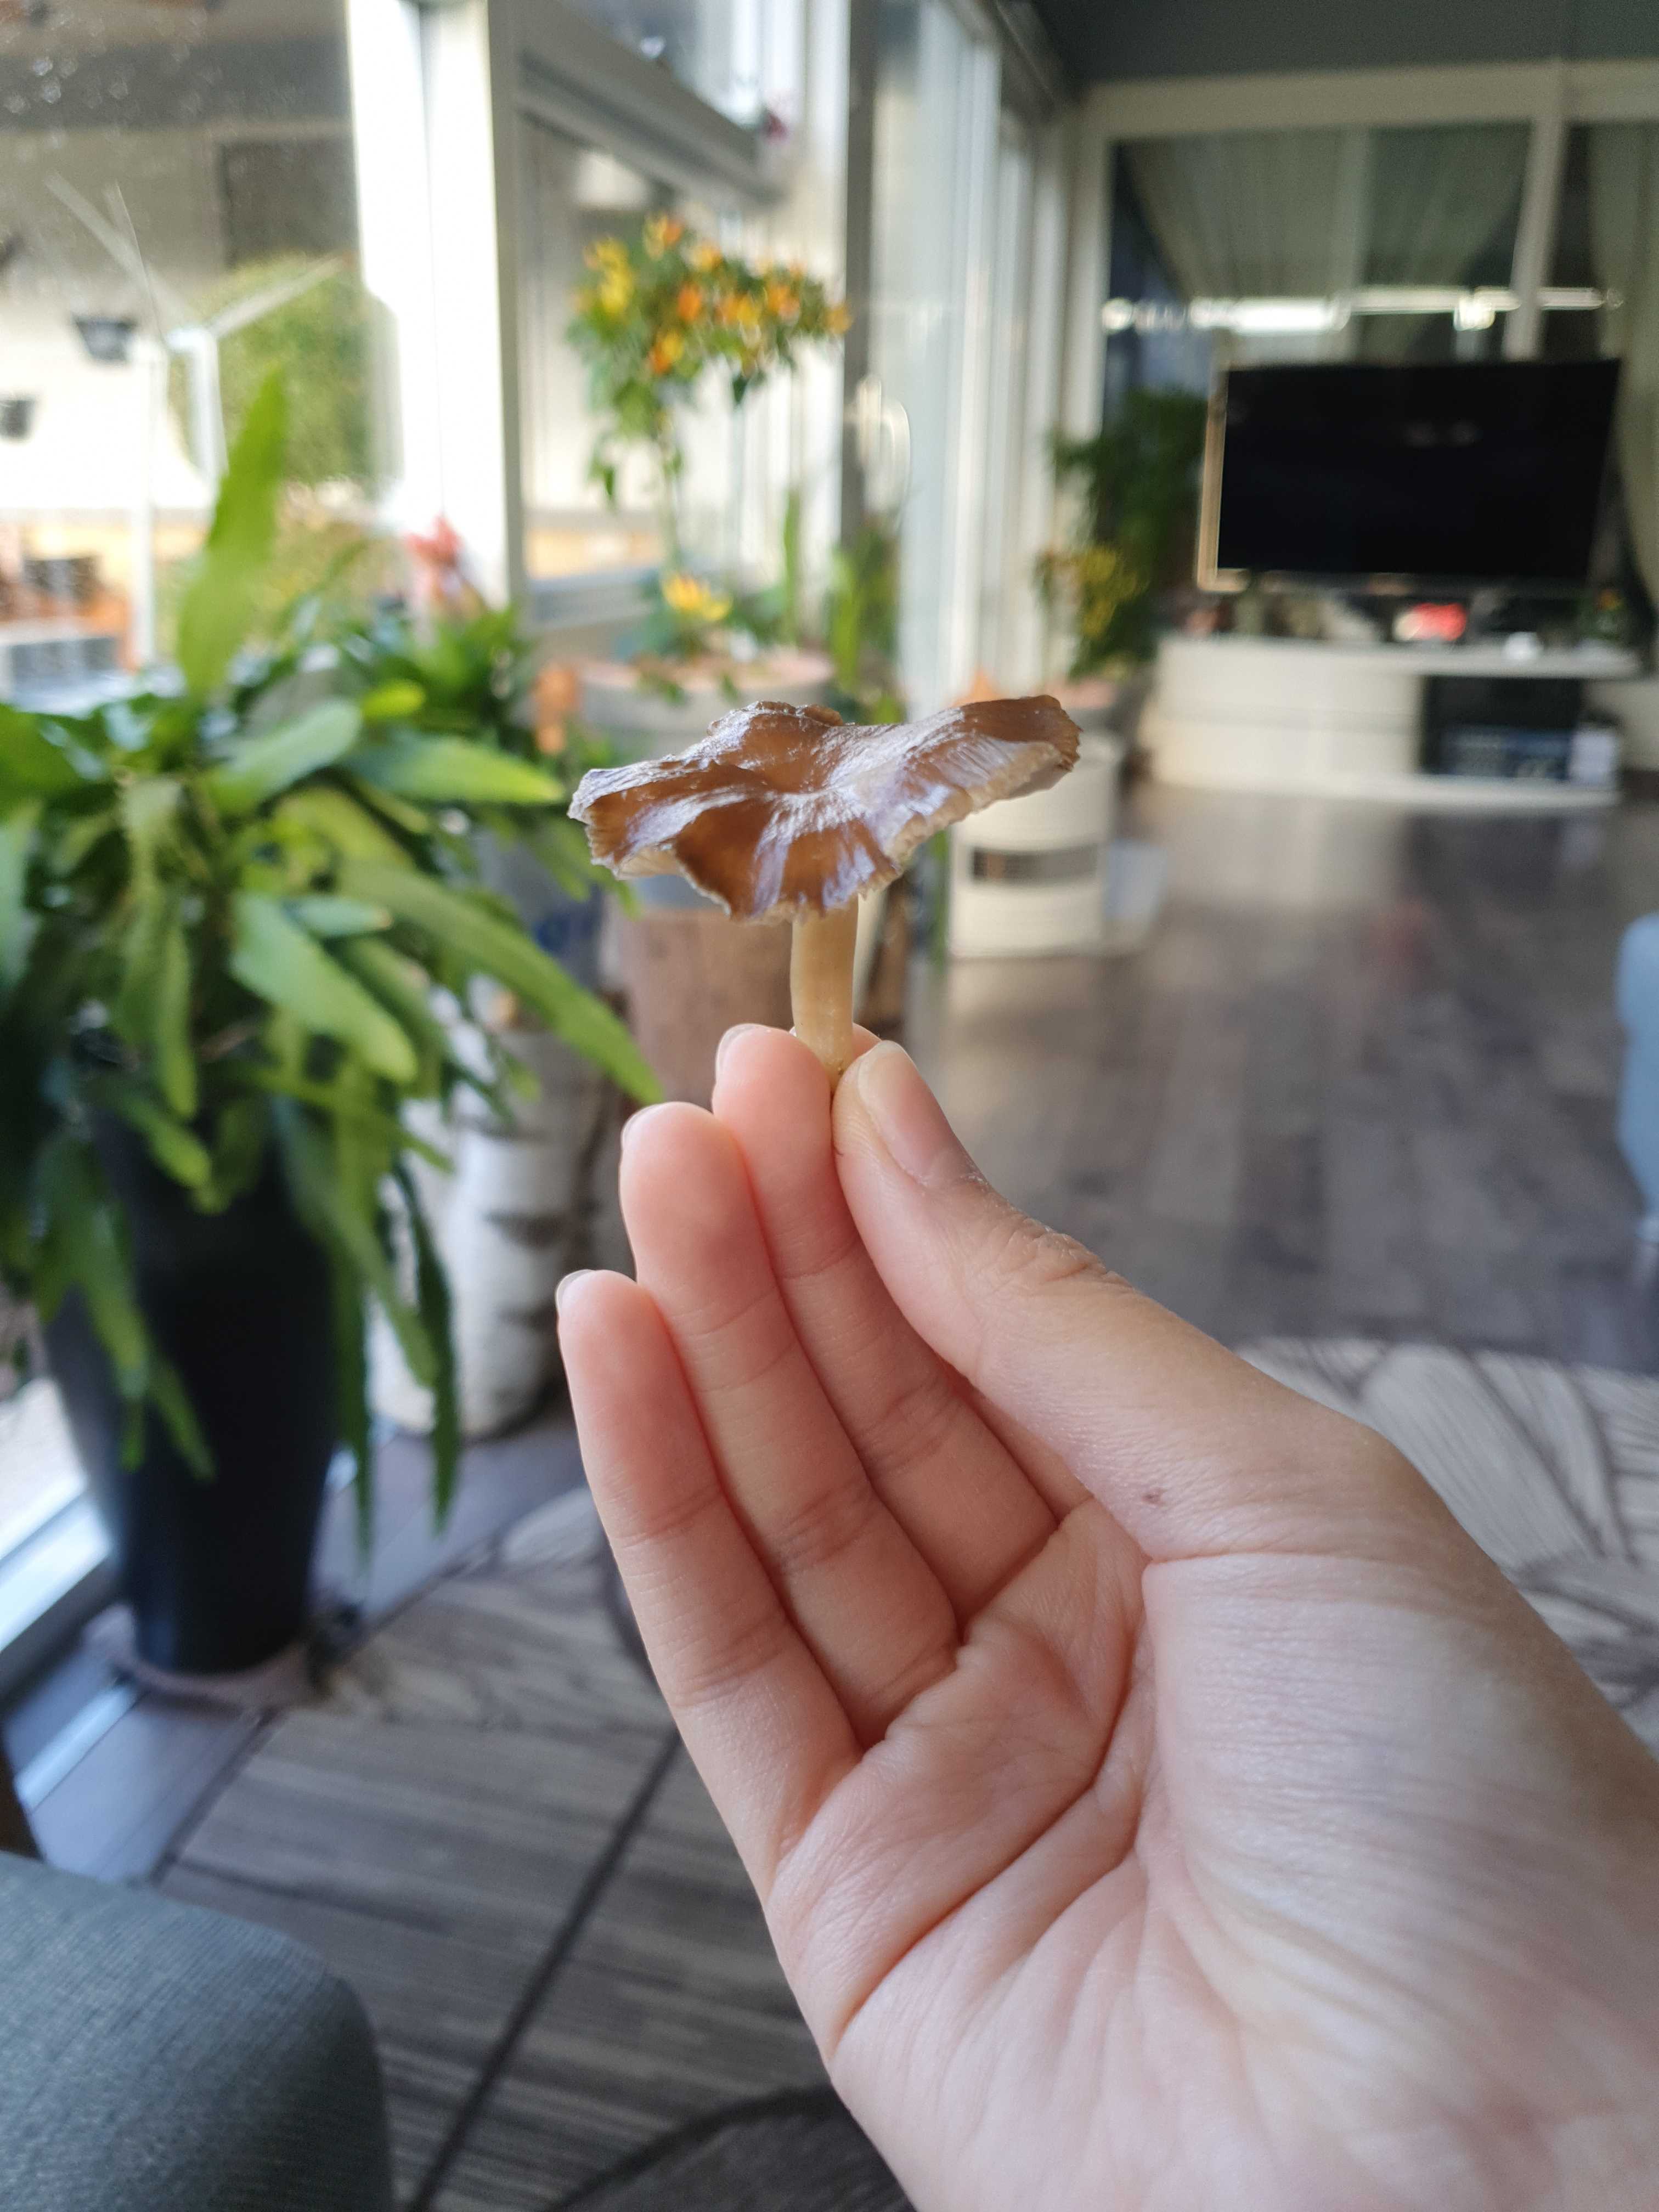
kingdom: Fungi
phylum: Basidiomycota
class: Agaricomycetes
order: Agaricales
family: Tricholomataceae
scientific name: Tricholomataceae
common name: ridderhatfamilien
